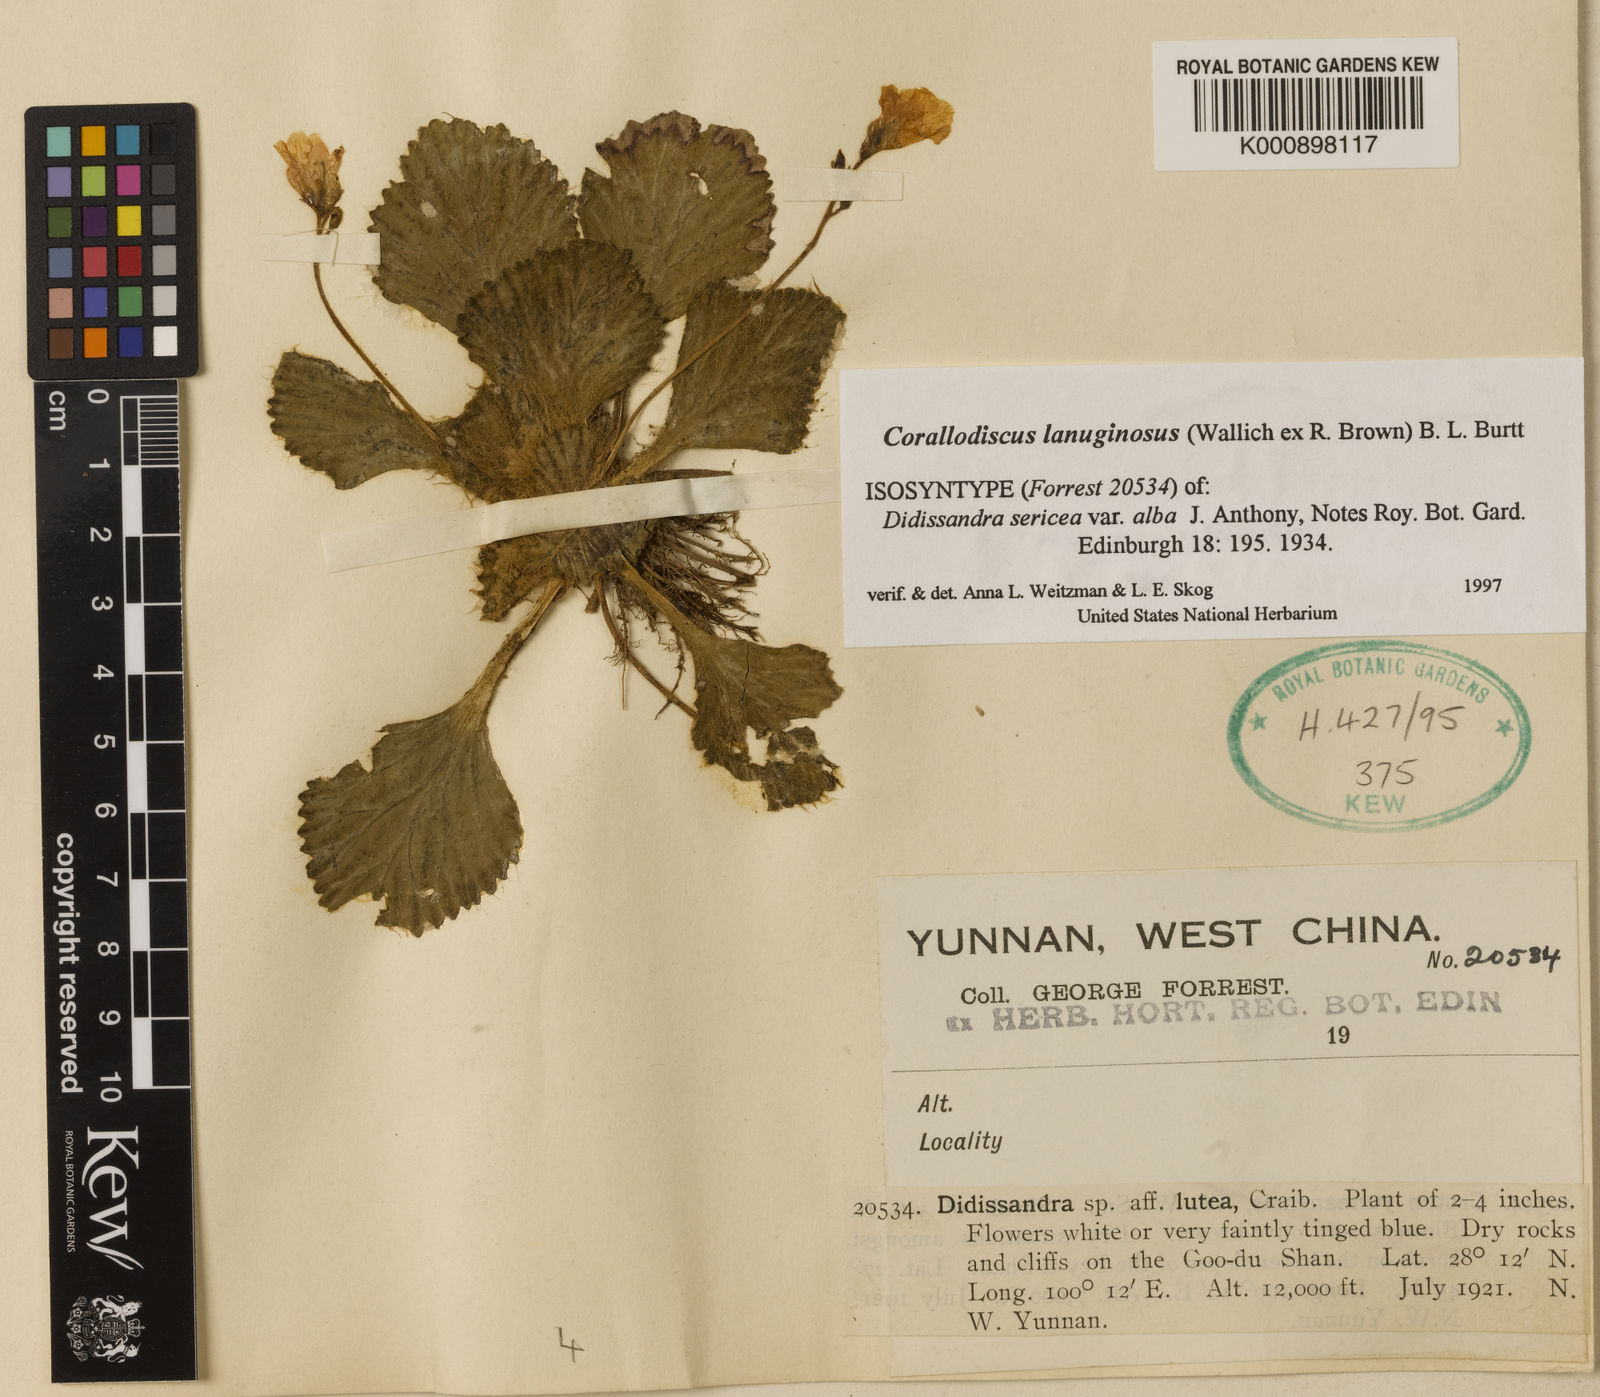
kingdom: Plantae
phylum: Tracheophyta
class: Magnoliopsida
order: Lamiales
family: Gesneriaceae
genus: Corallodiscus
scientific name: Corallodiscus lanuginosus
